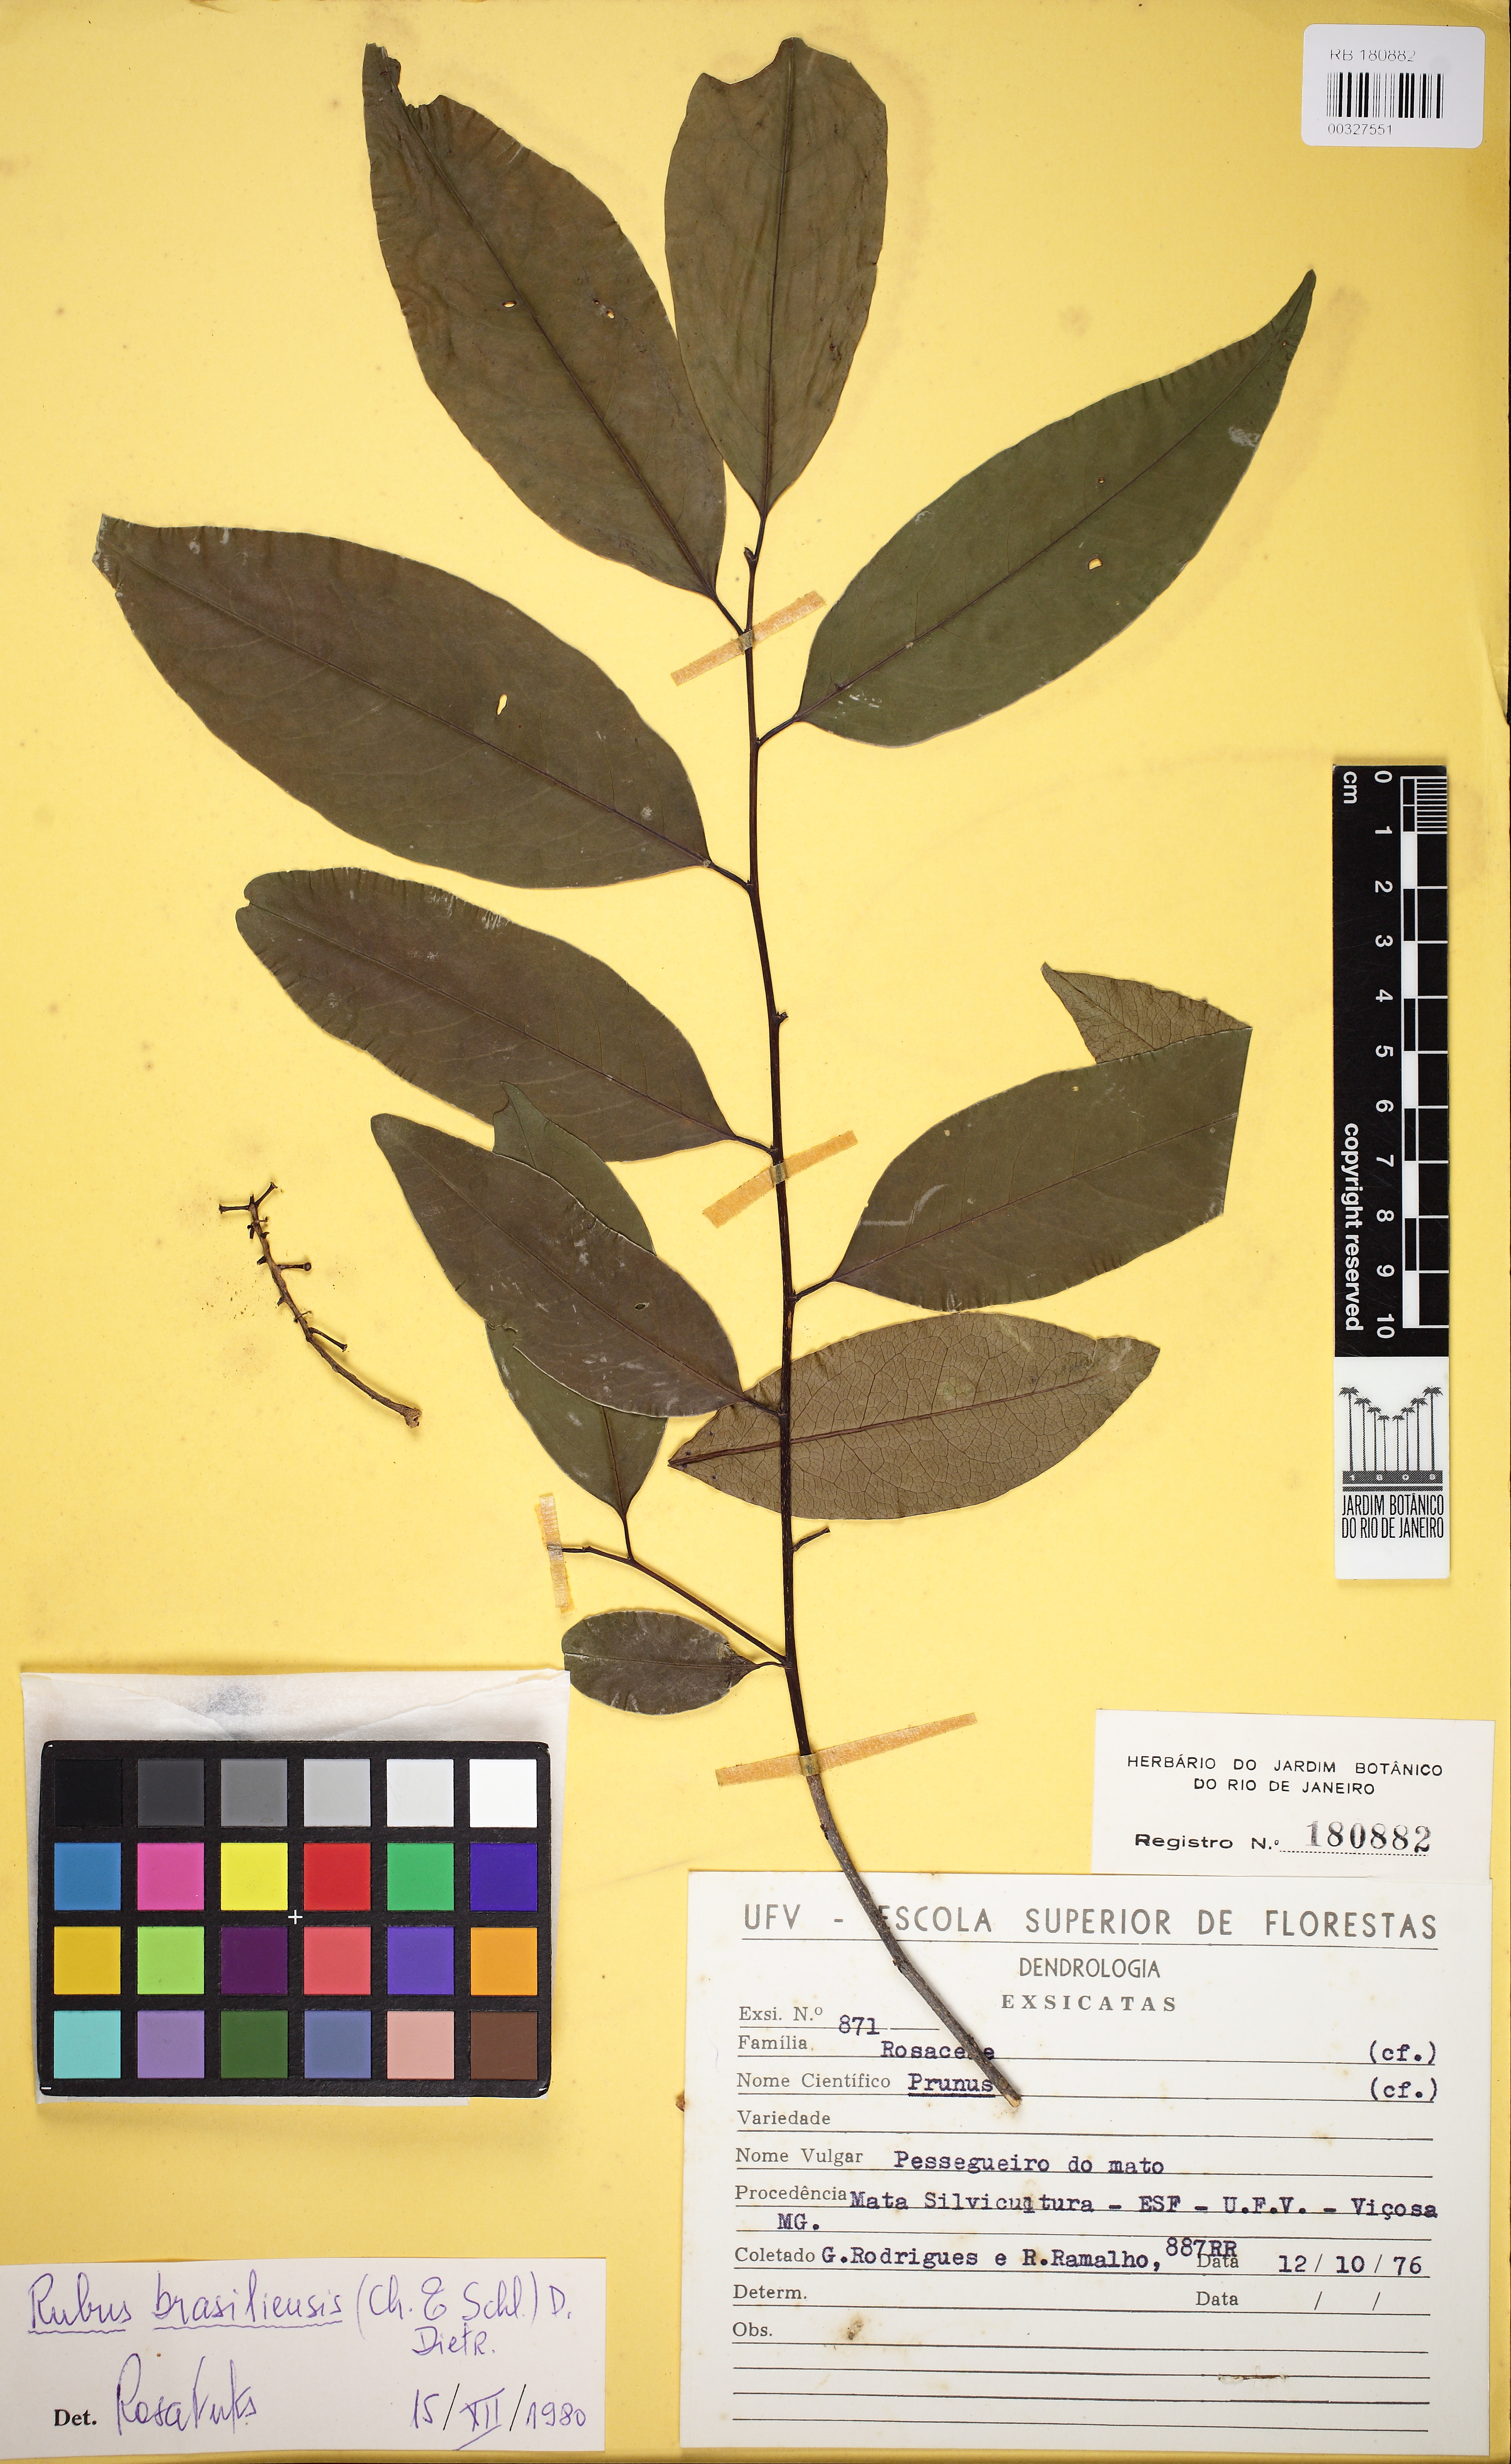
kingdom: Plantae
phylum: Tracheophyta
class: Magnoliopsida
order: Rosales
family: Rosaceae
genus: Prunus
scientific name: Prunus brasiliensis
